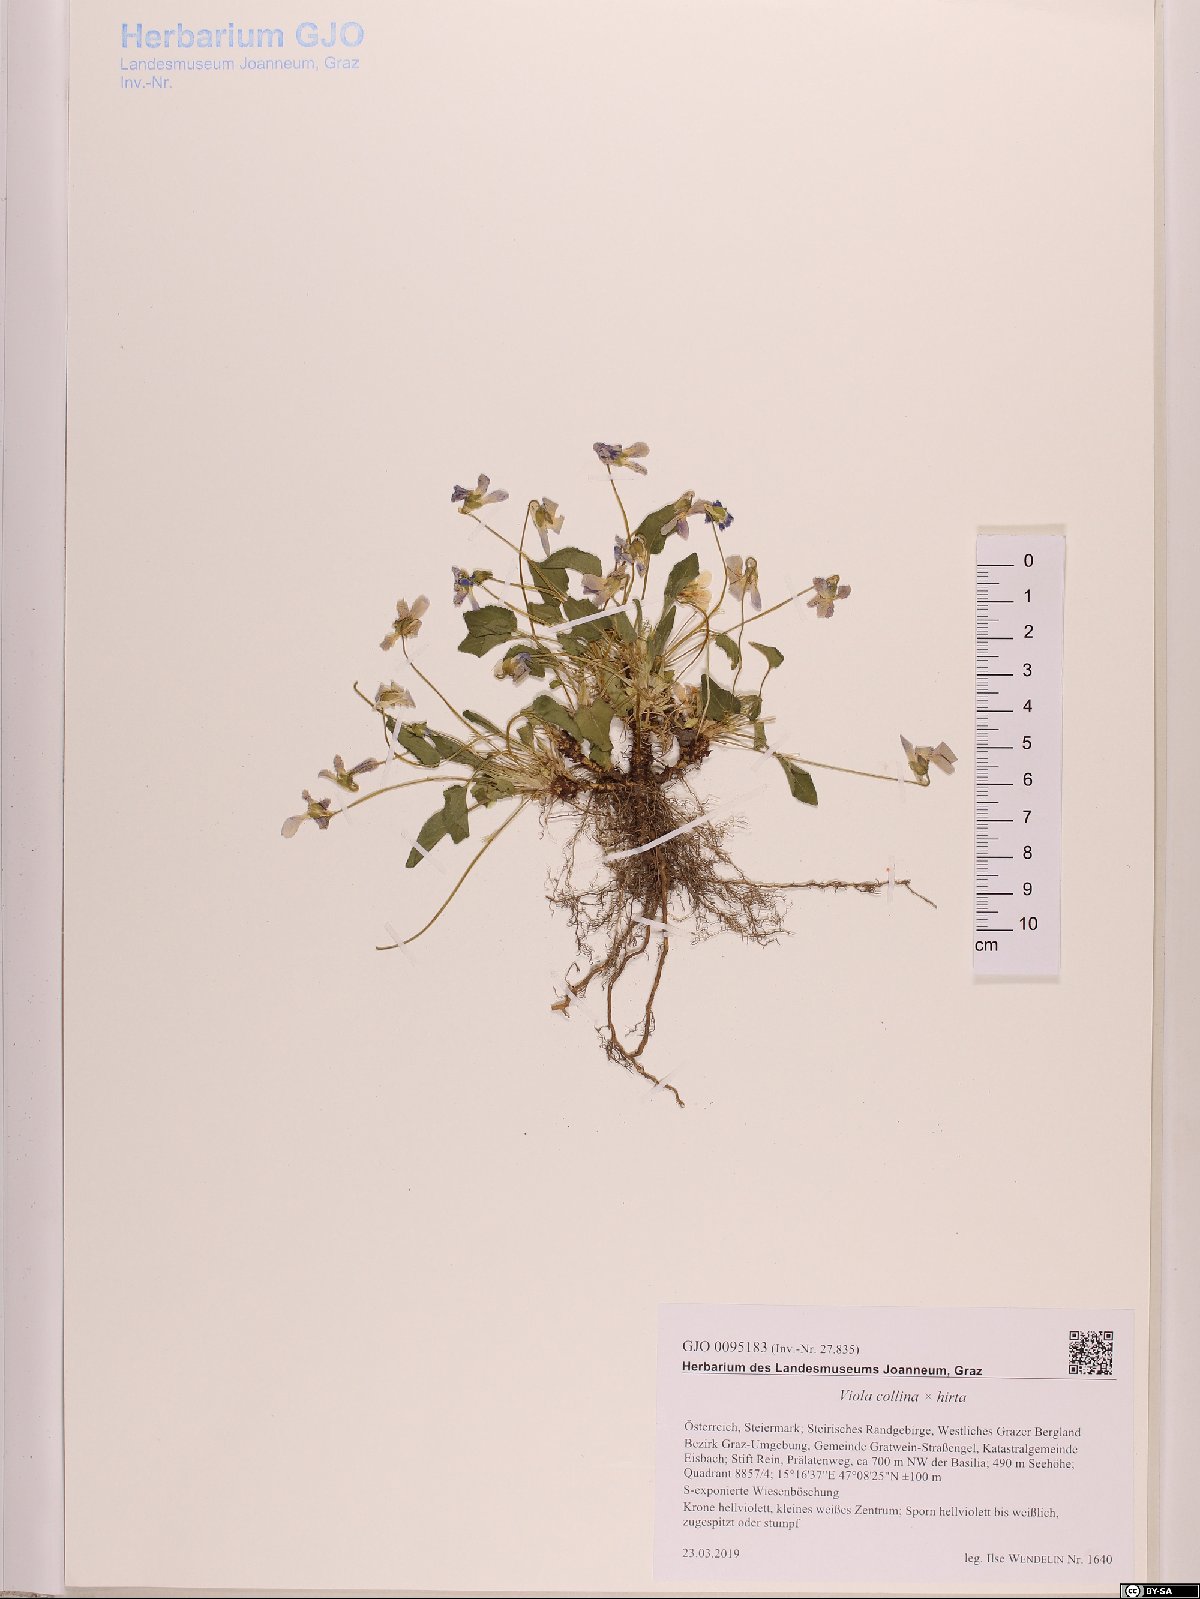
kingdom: Plantae
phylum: Tracheophyta
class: Magnoliopsida
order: Malpighiales
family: Violaceae
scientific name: Violaceae
